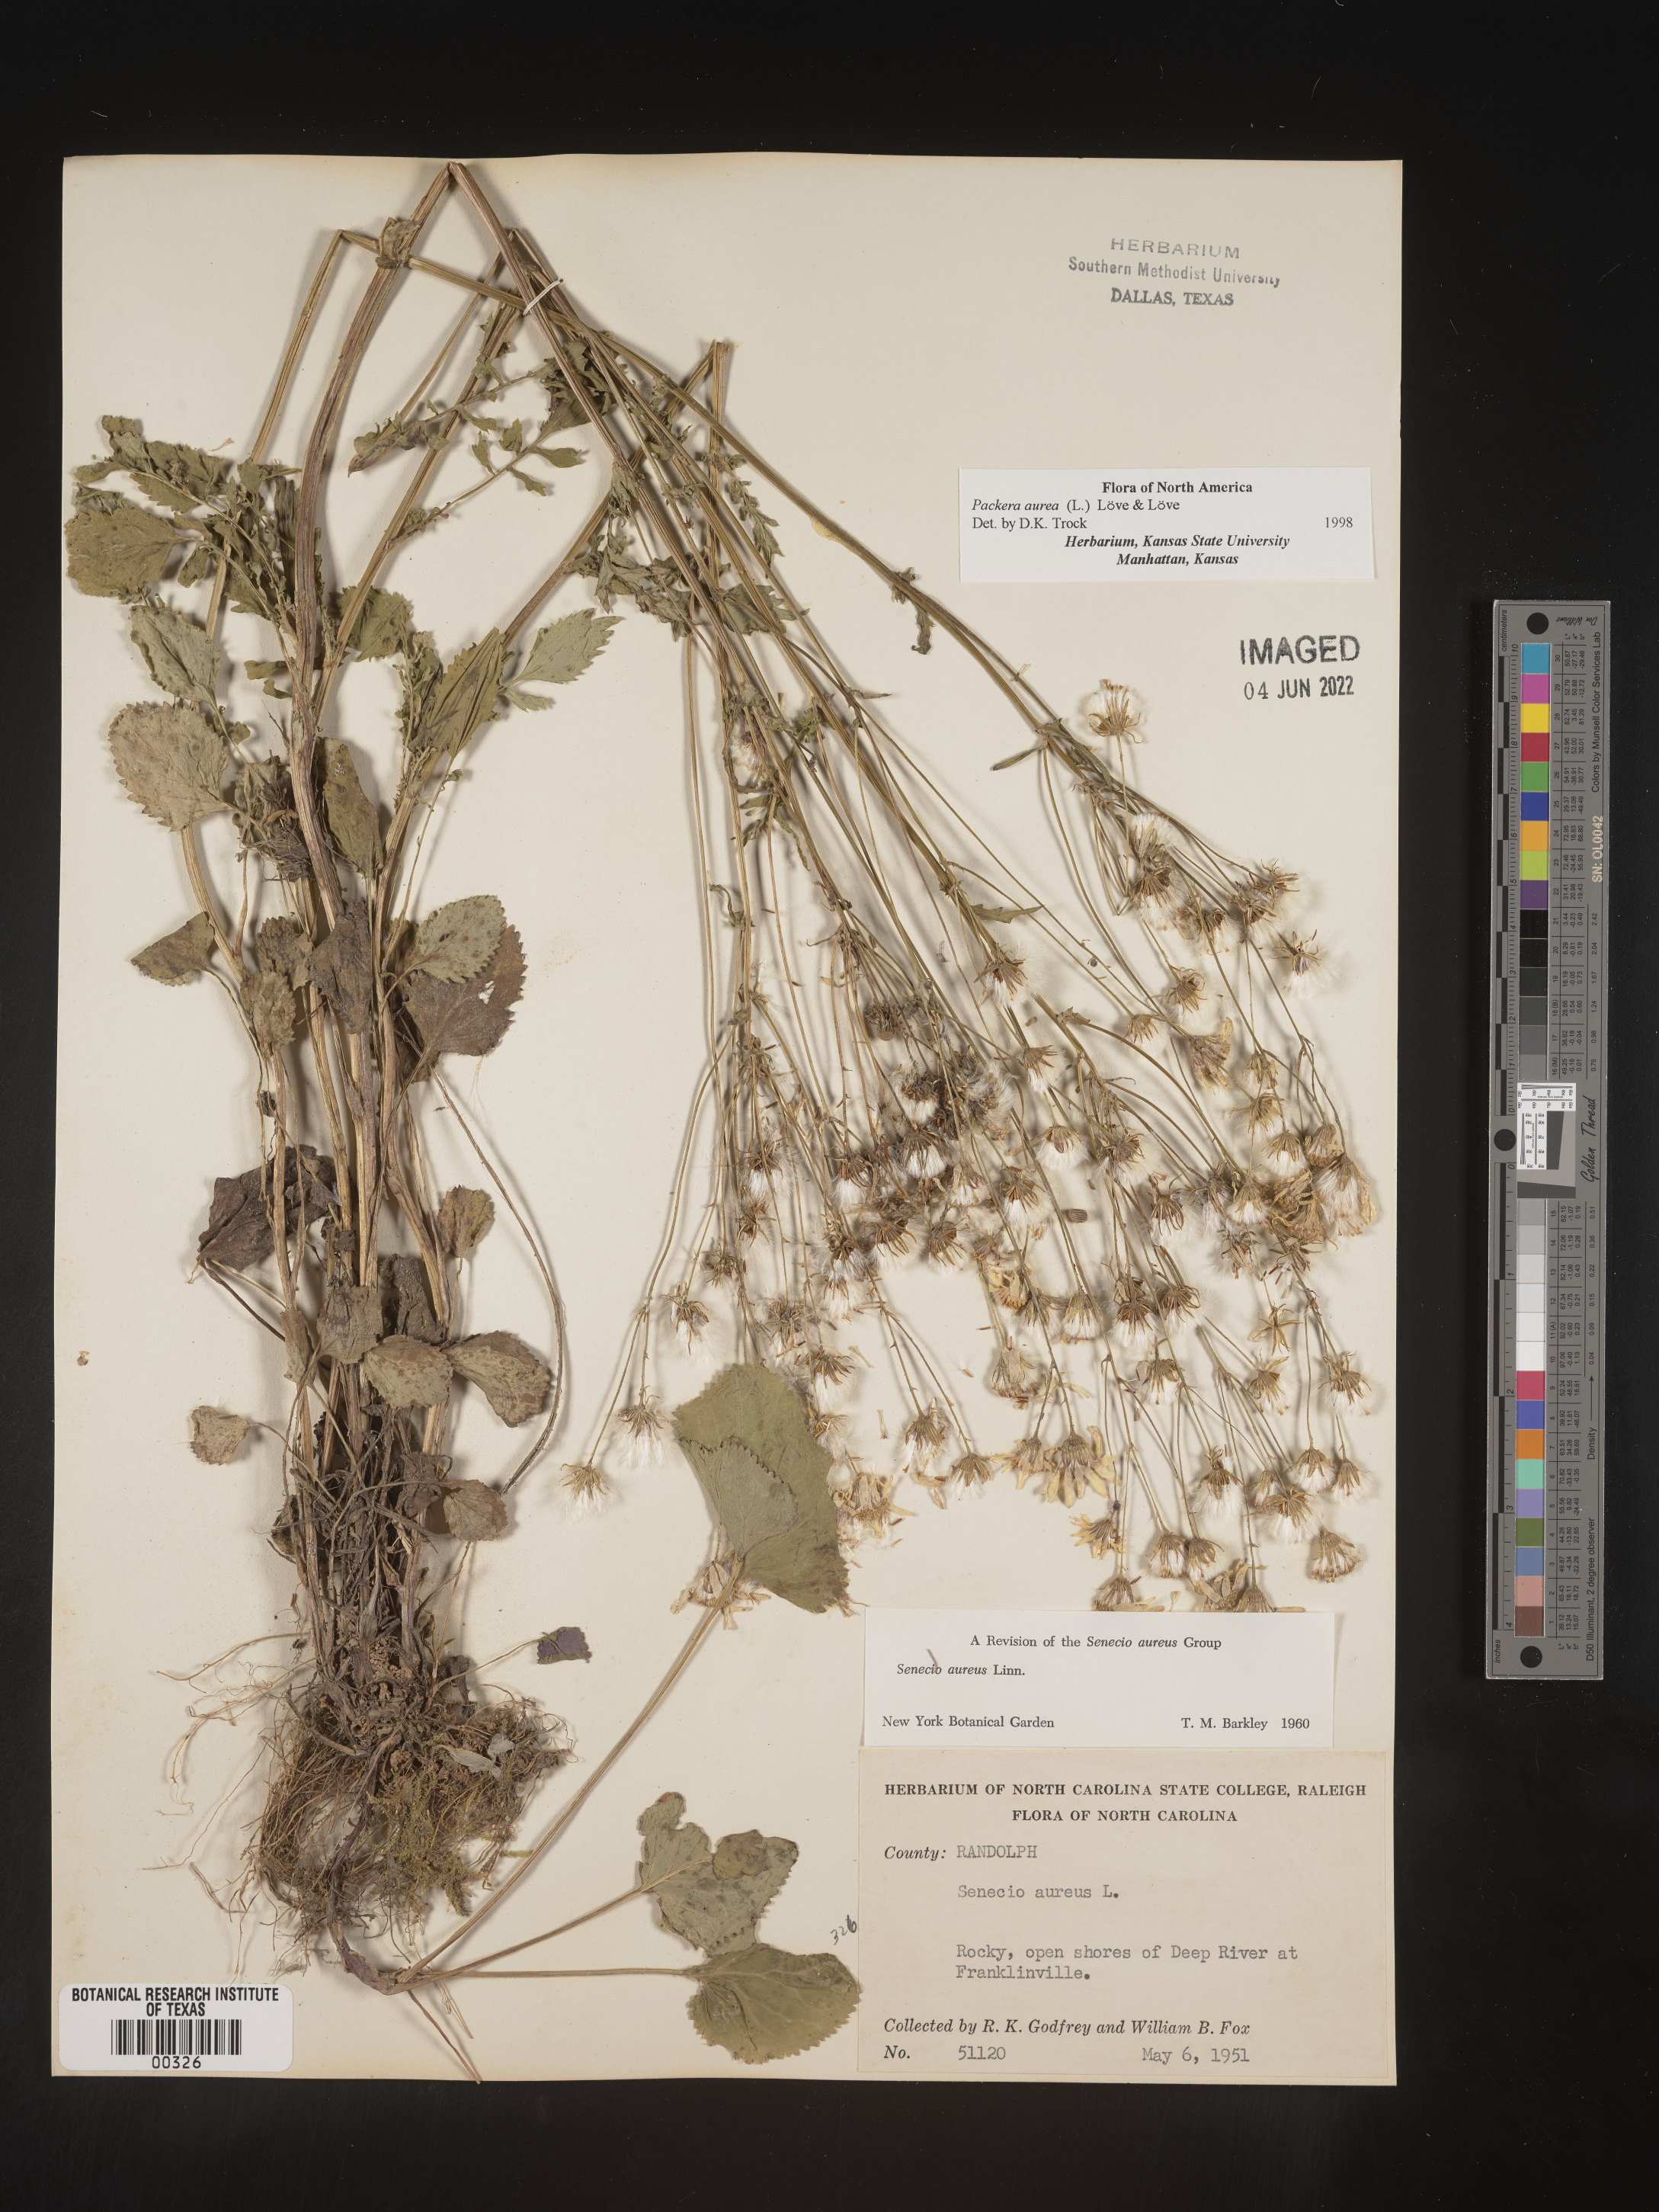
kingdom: Plantae
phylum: Tracheophyta
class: Magnoliopsida
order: Asterales
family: Asteraceae
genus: Packera
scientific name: Packera aurea
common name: Golden groundsel
